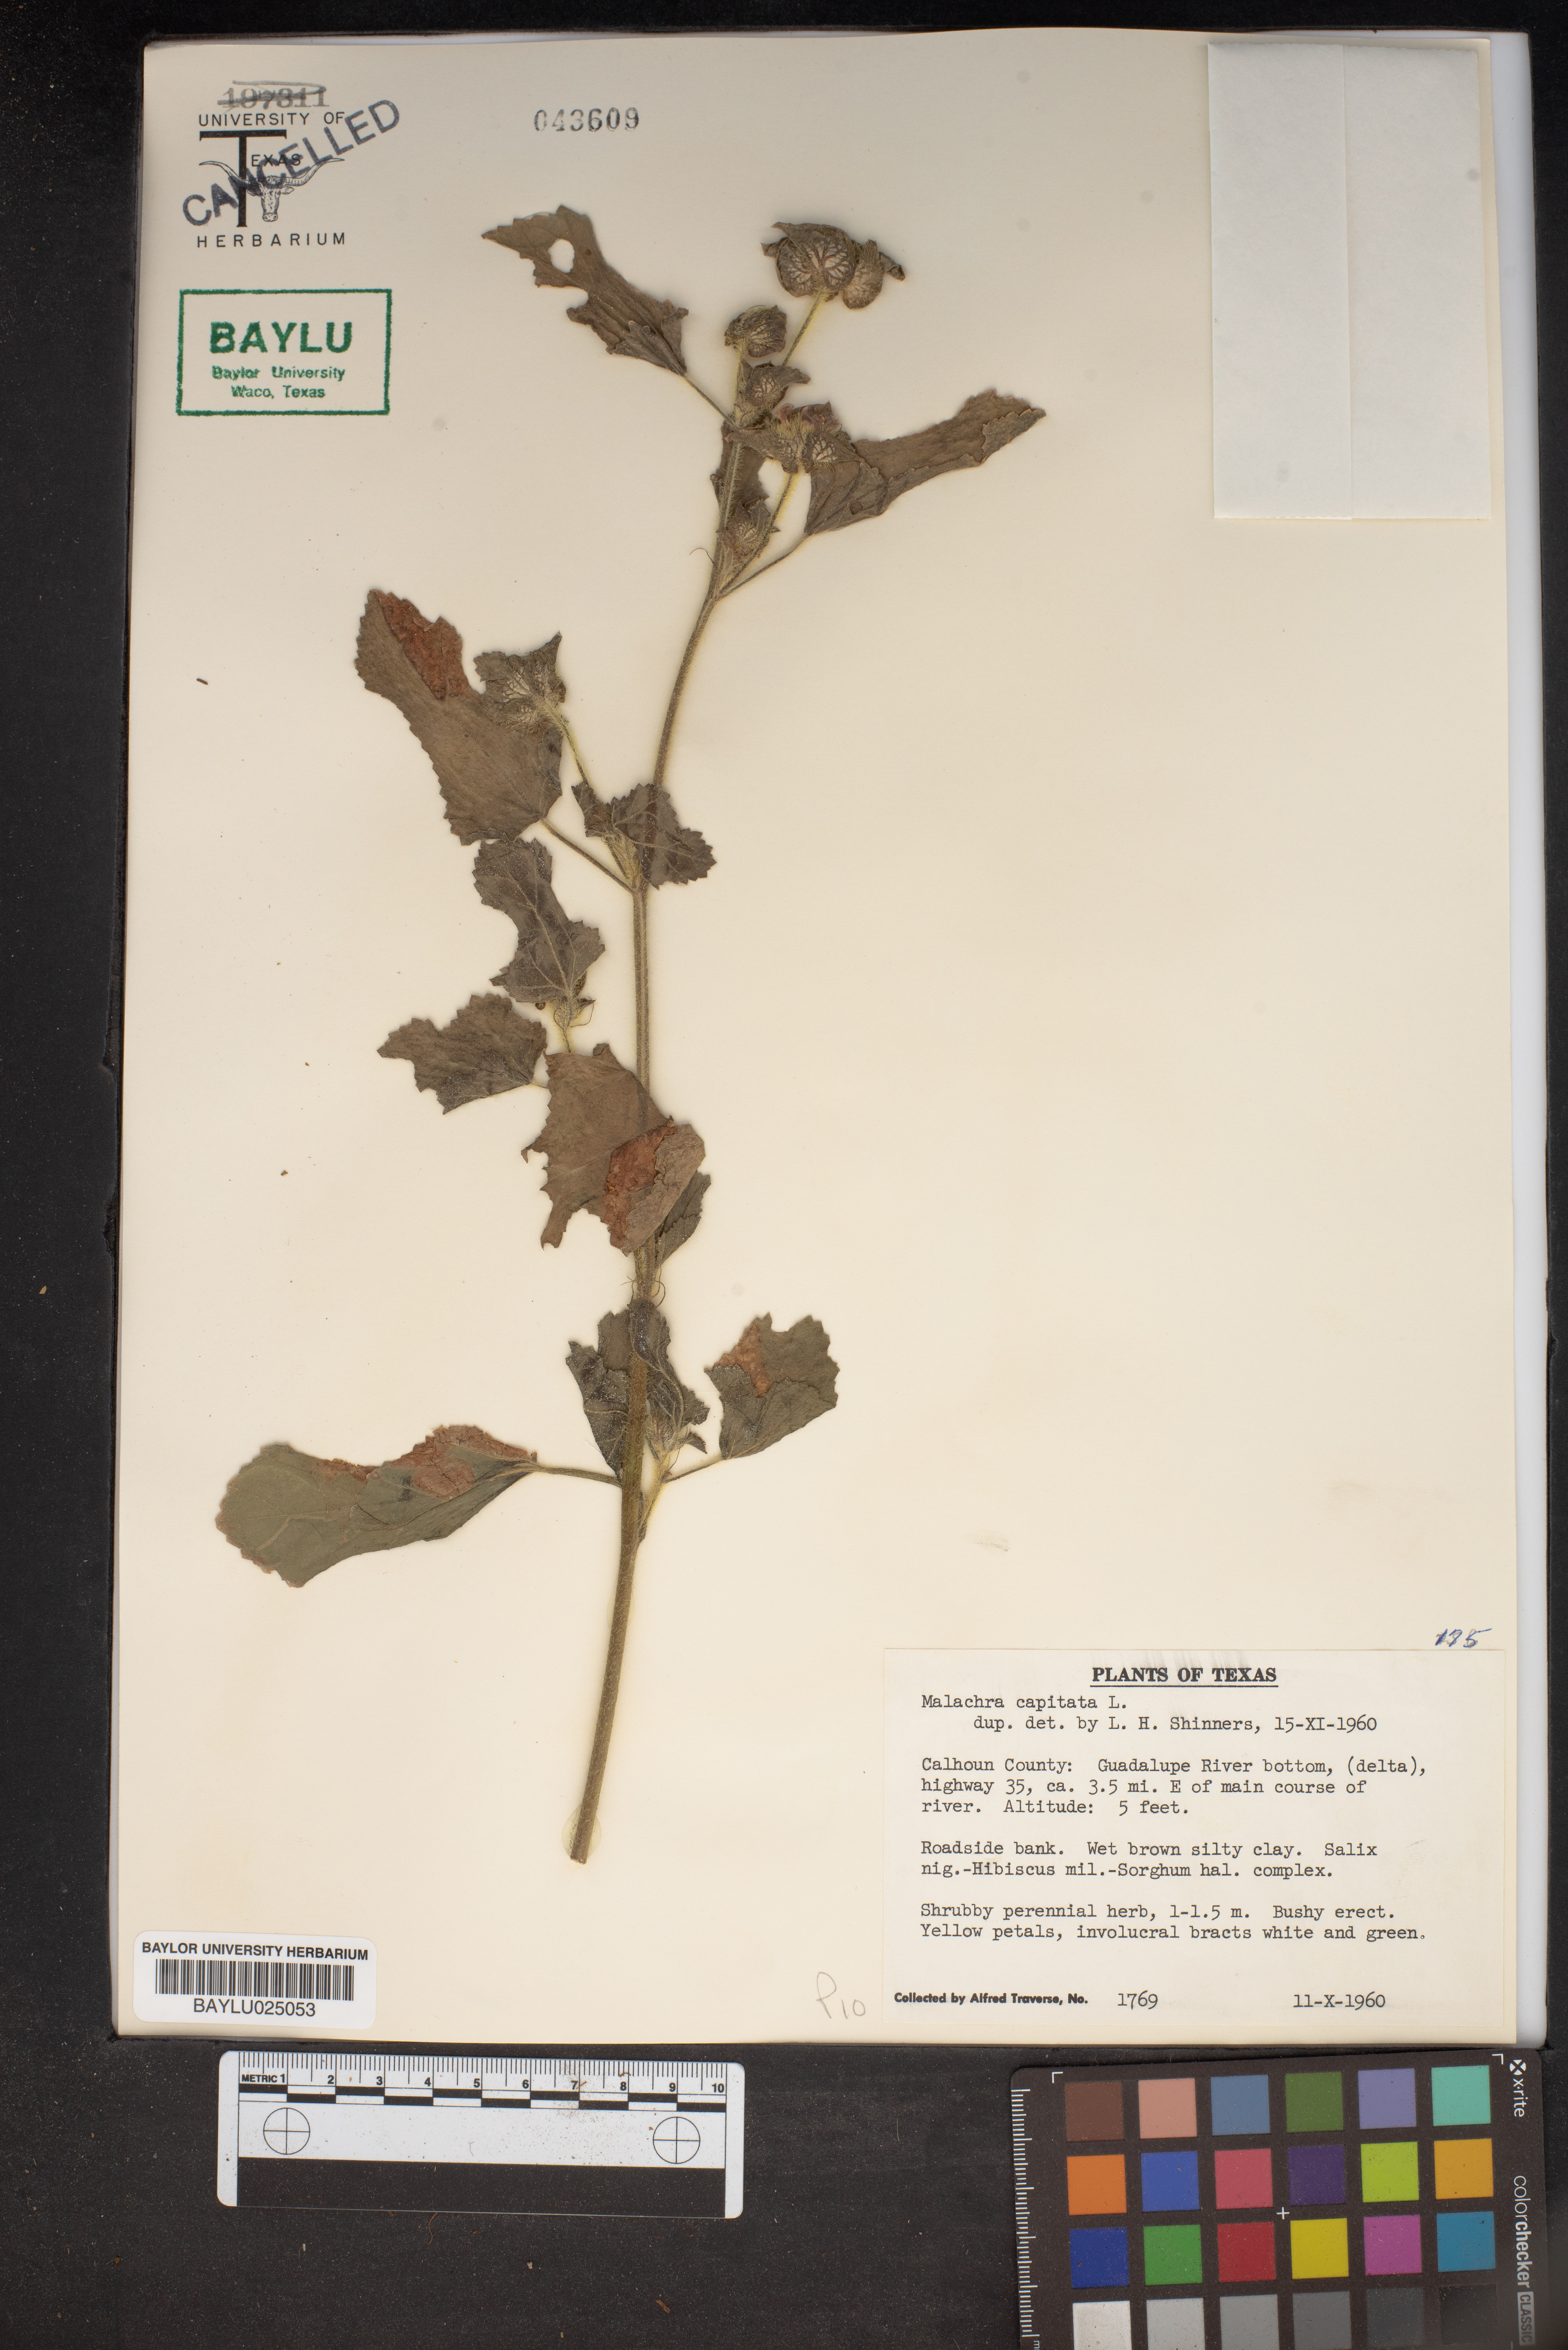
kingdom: Plantae
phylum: Tracheophyta
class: Magnoliopsida
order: Malvales
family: Malvaceae
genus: Malachra
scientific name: Malachra capitata
